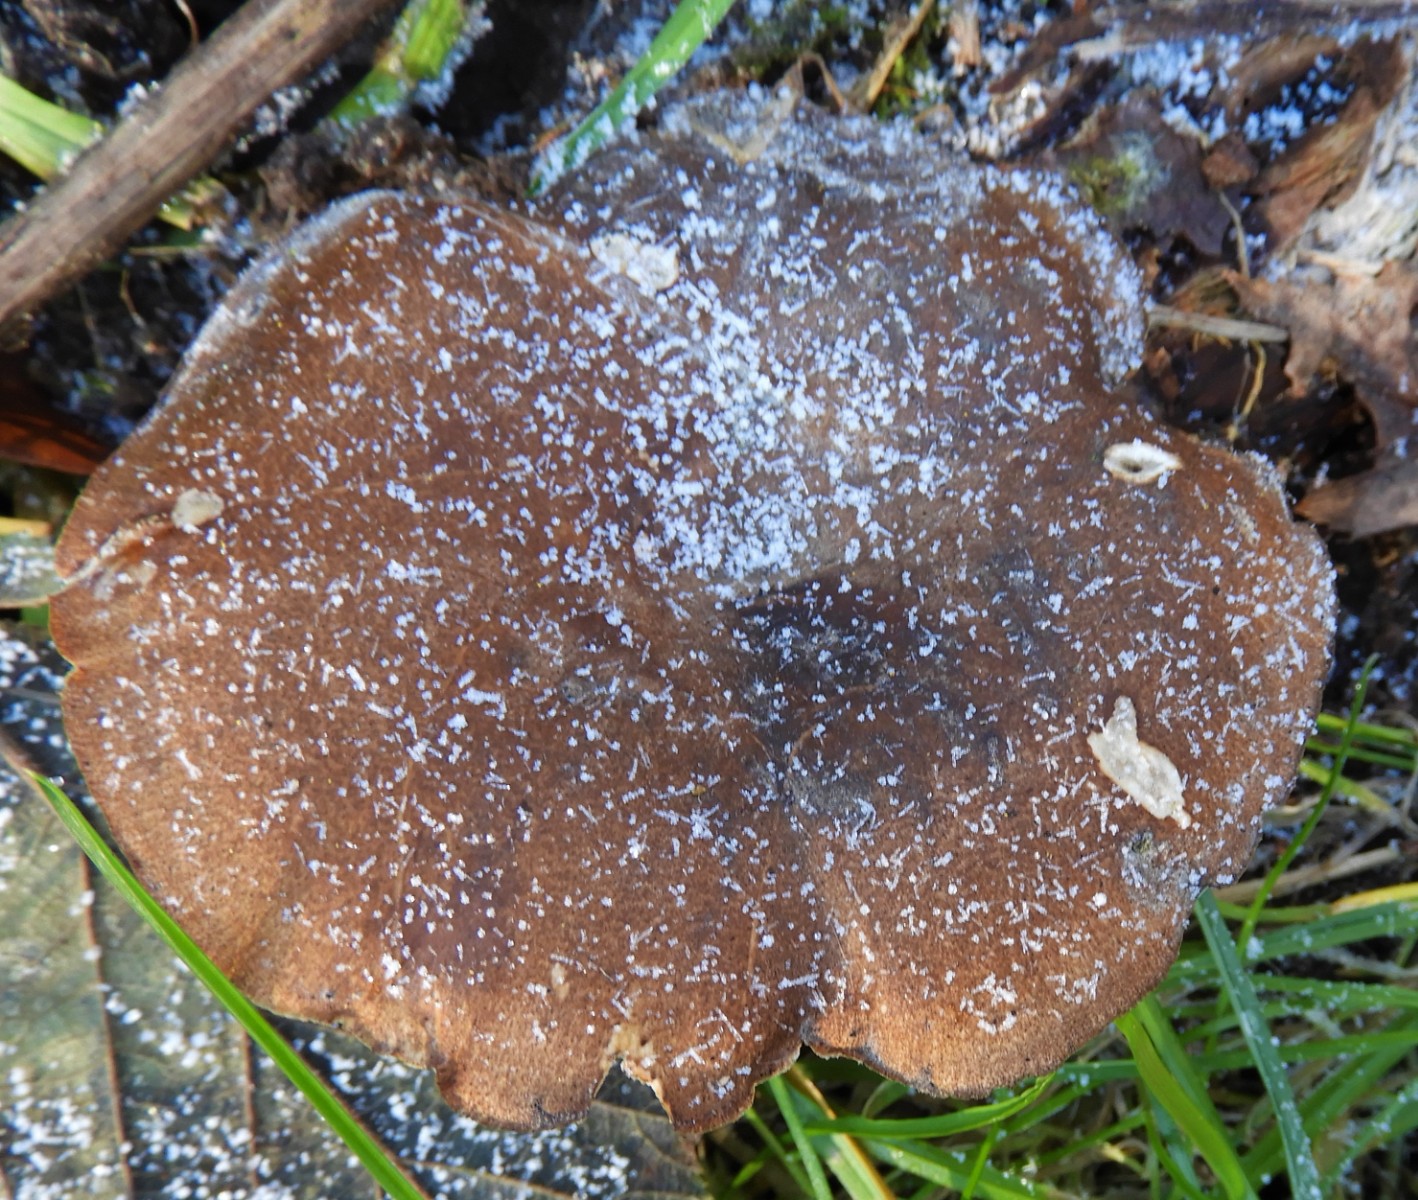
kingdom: Fungi
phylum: Basidiomycota
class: Agaricomycetes
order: Polyporales
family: Polyporaceae
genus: Lentinus
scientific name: Lentinus brumalis
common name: vinter-stilkporesvamp
